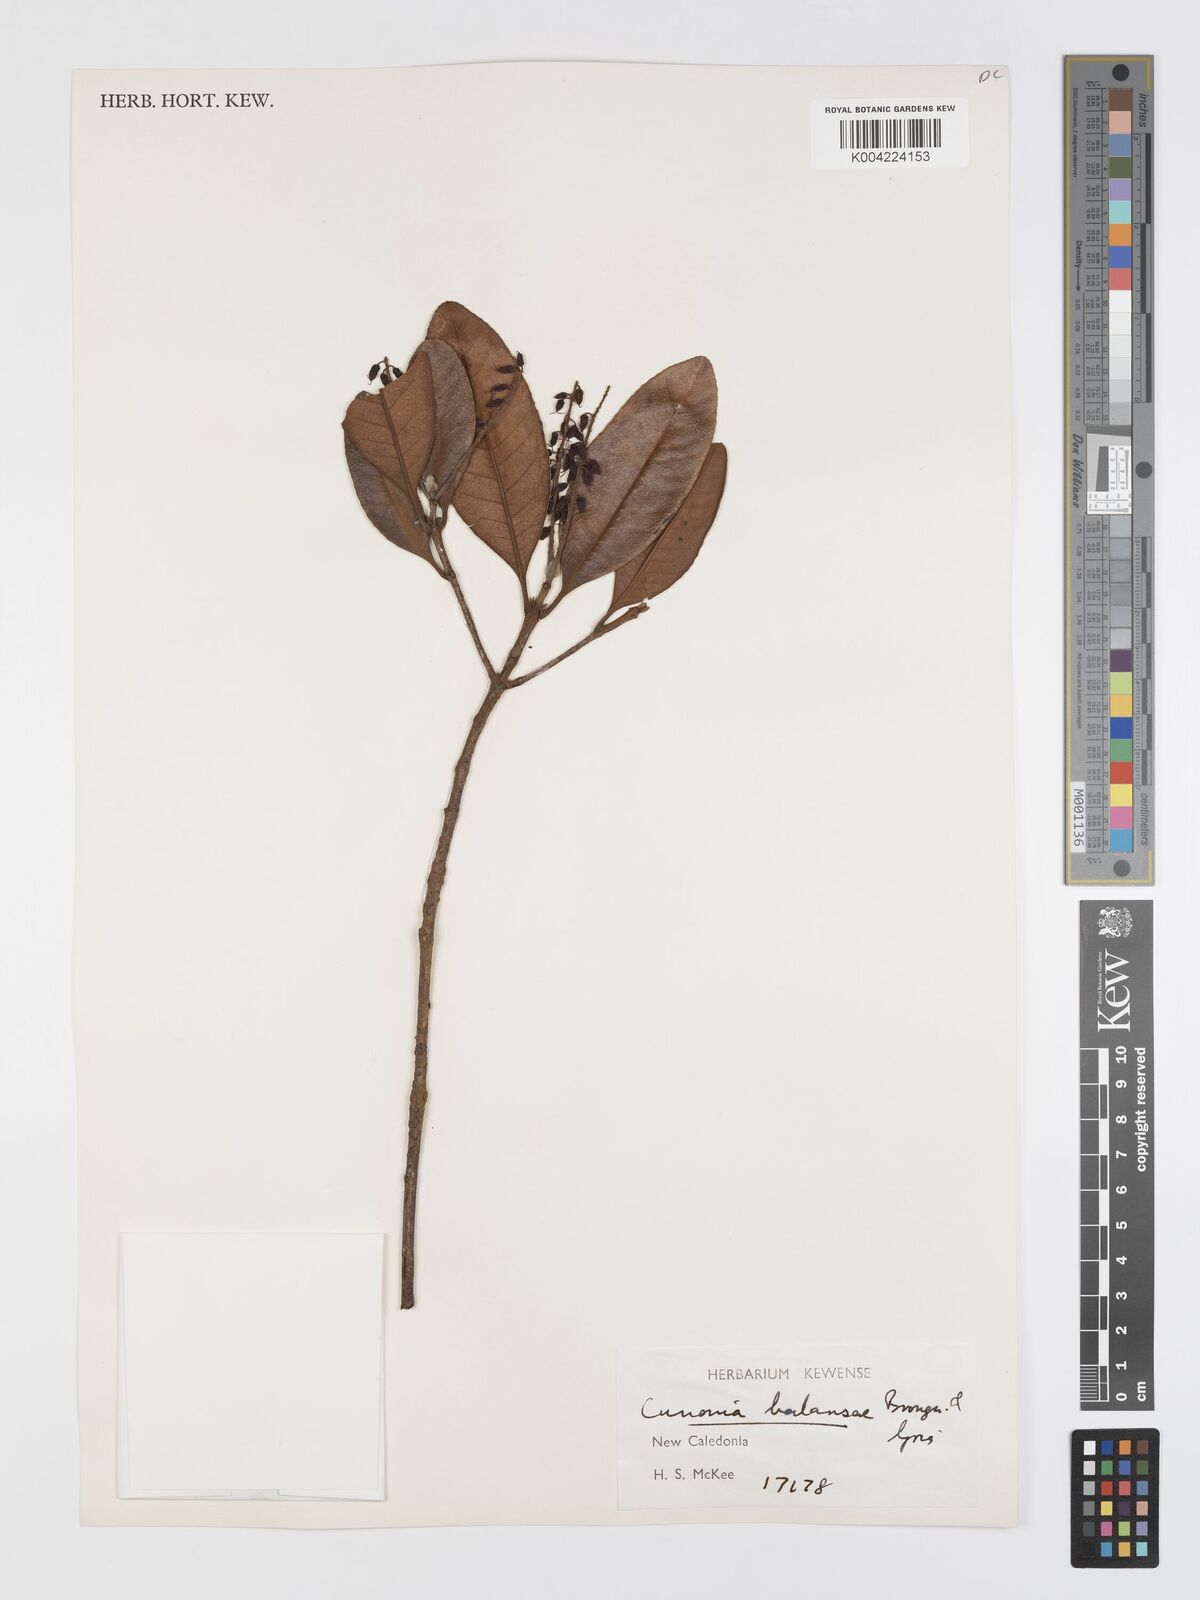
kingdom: Plantae
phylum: Tracheophyta
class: Magnoliopsida
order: Oxalidales
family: Cunoniaceae
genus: Cunonia
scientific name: Cunonia balansae
